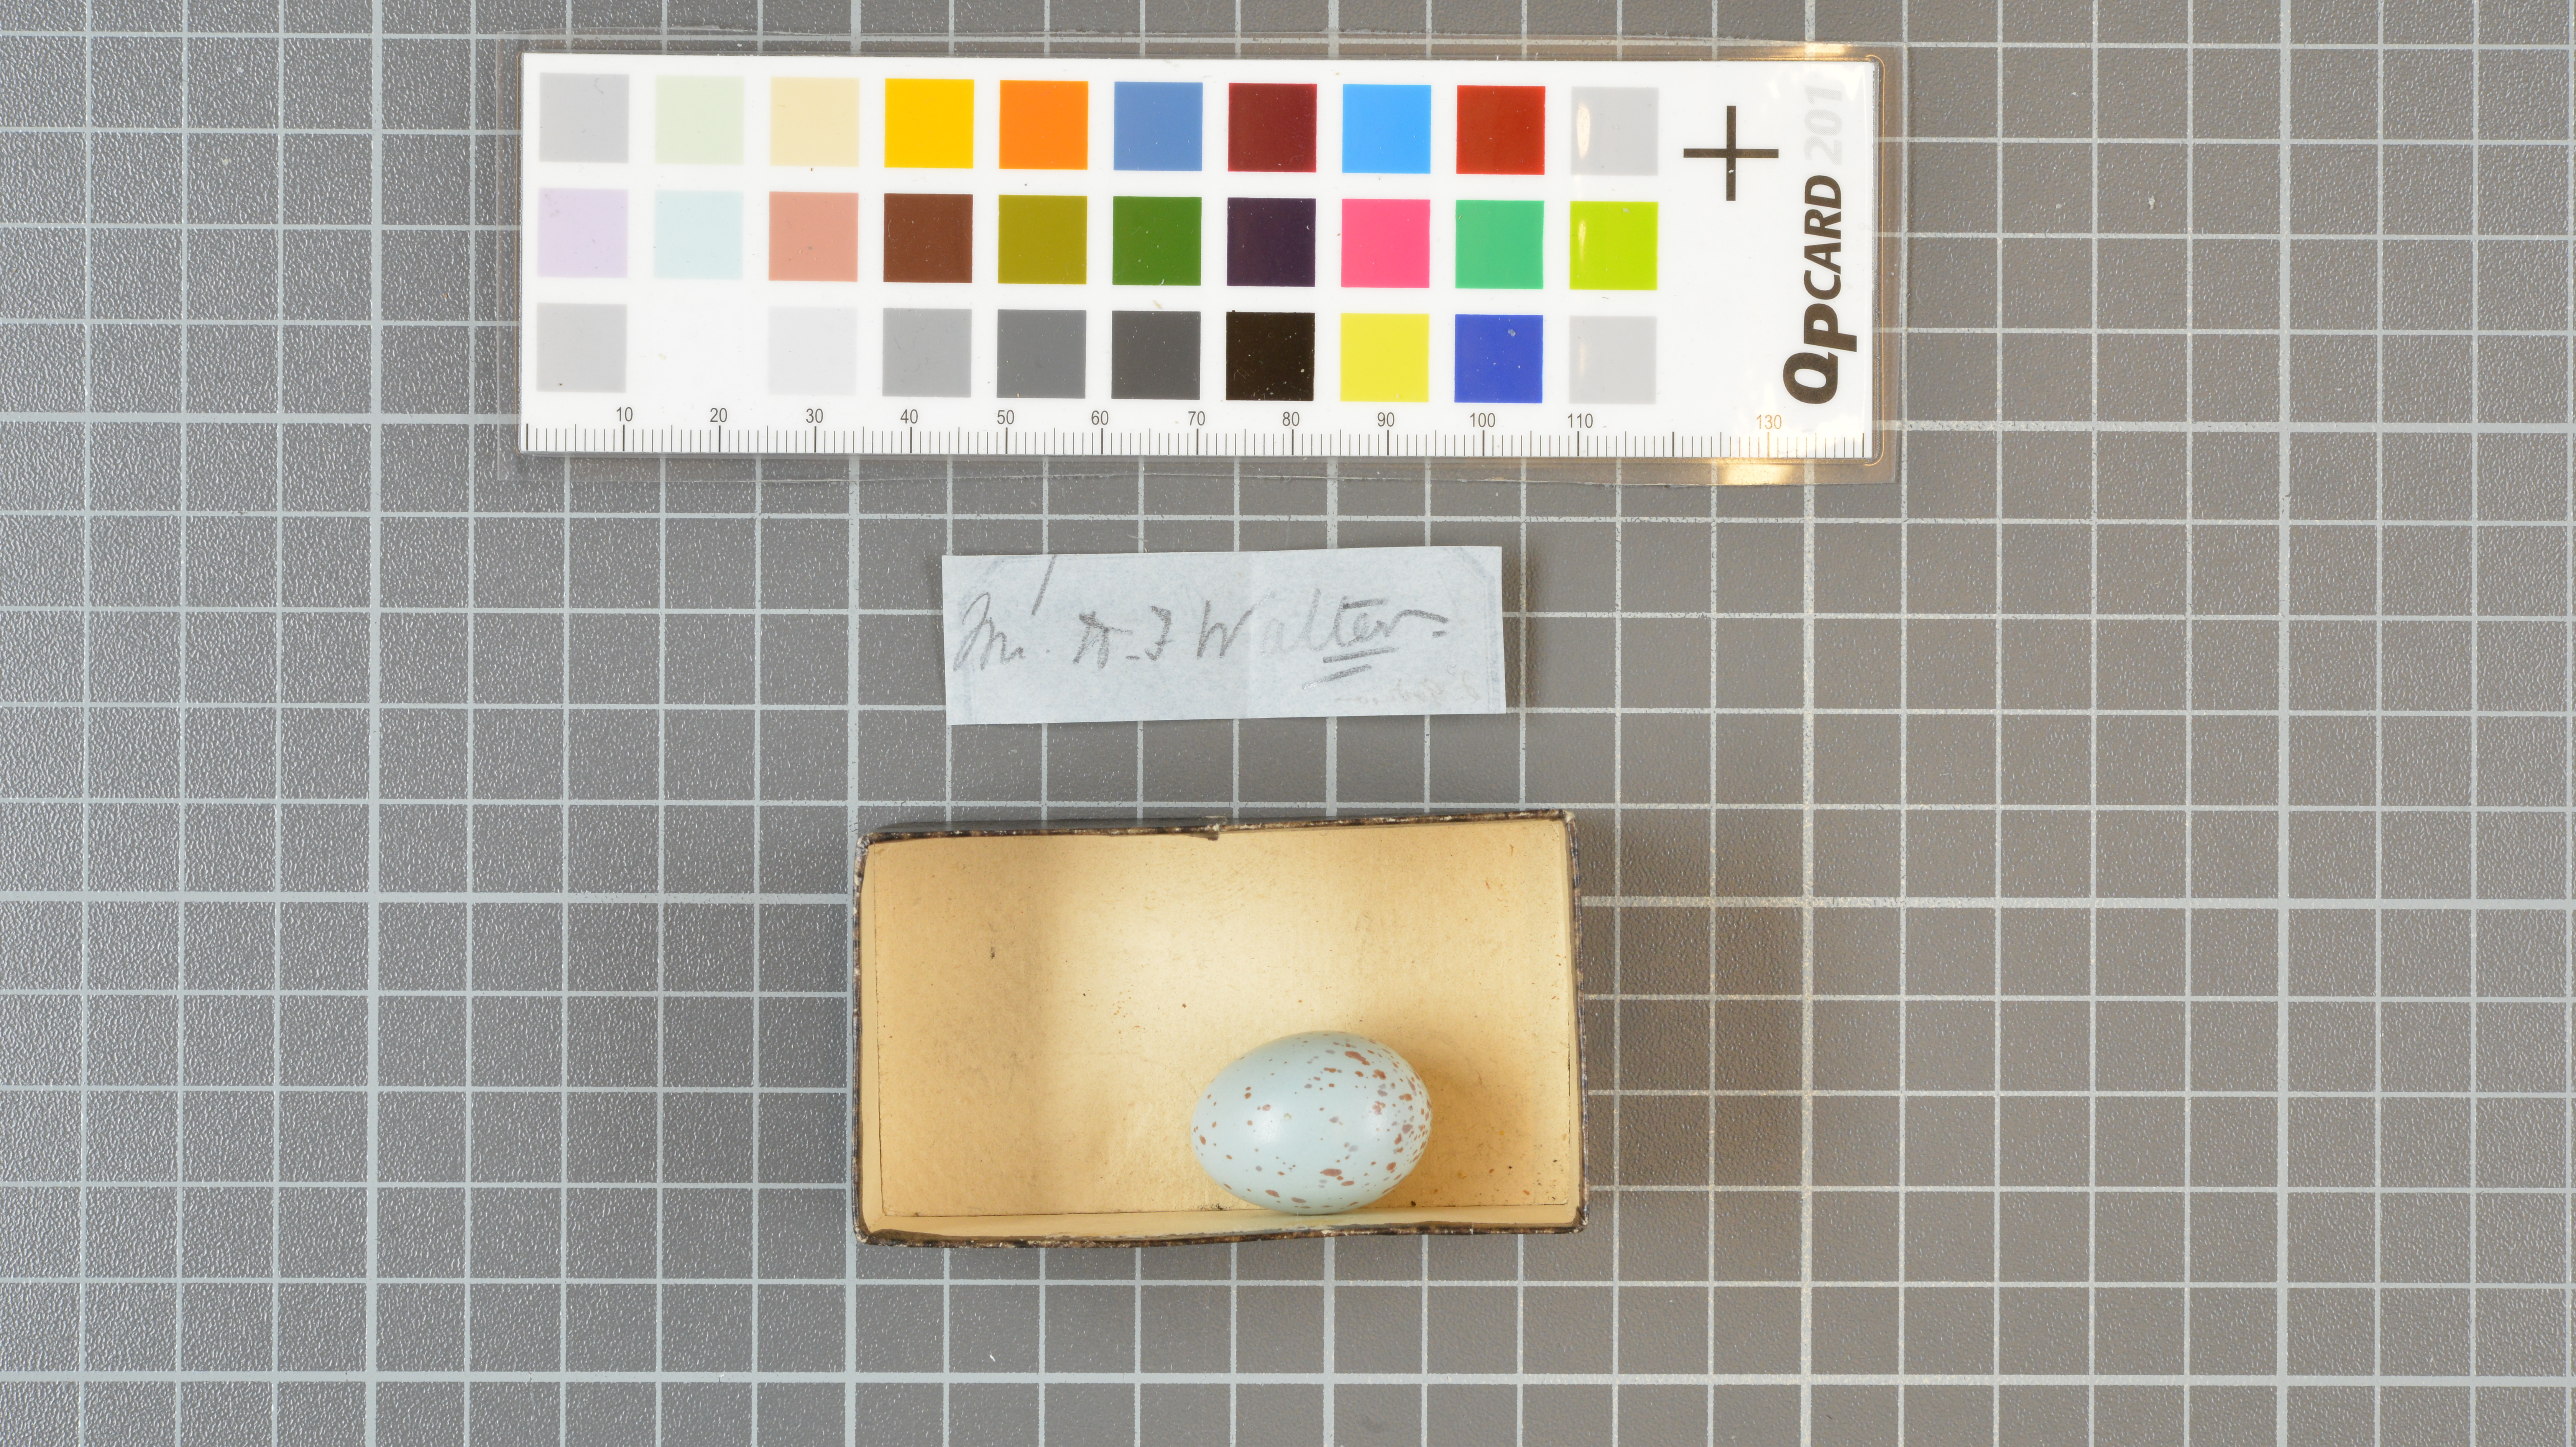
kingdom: Animalia
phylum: Chordata
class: Aves
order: Passeriformes
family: Laniidae
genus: Lanius
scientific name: Lanius
